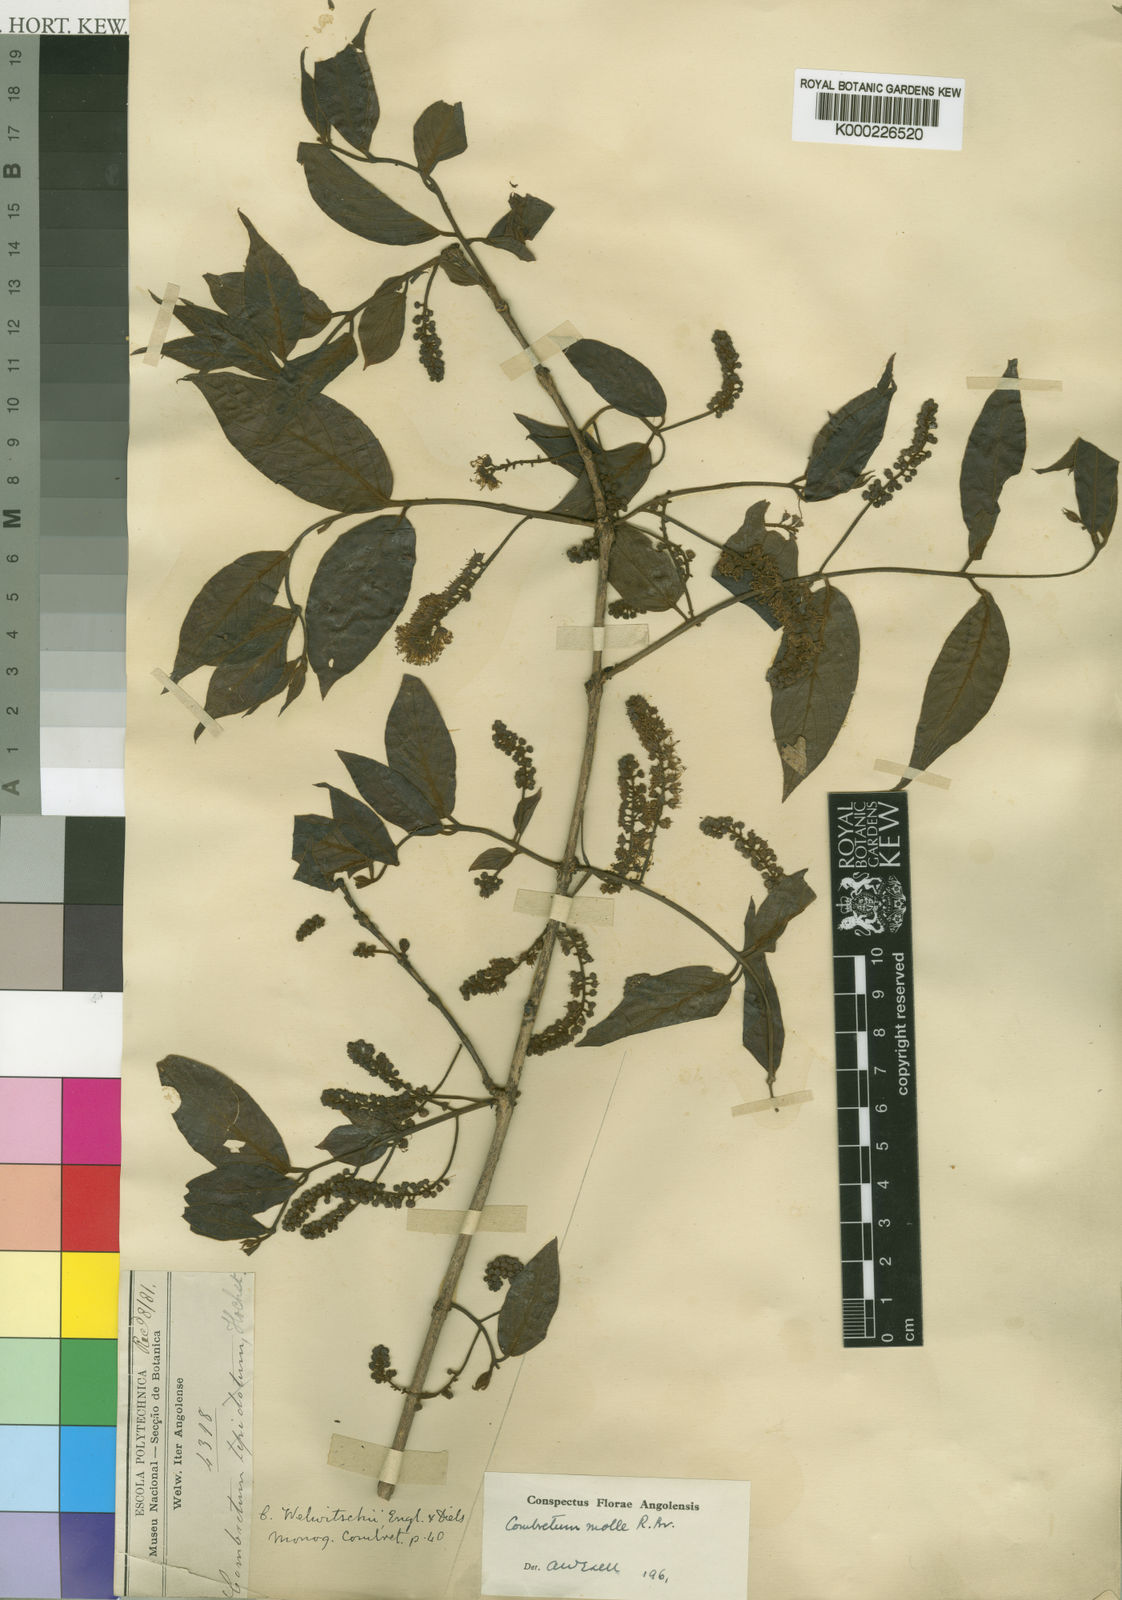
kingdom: Plantae
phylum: Tracheophyta
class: Magnoliopsida
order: Myrtales
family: Combretaceae
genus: Combretum
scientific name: Combretum molle
